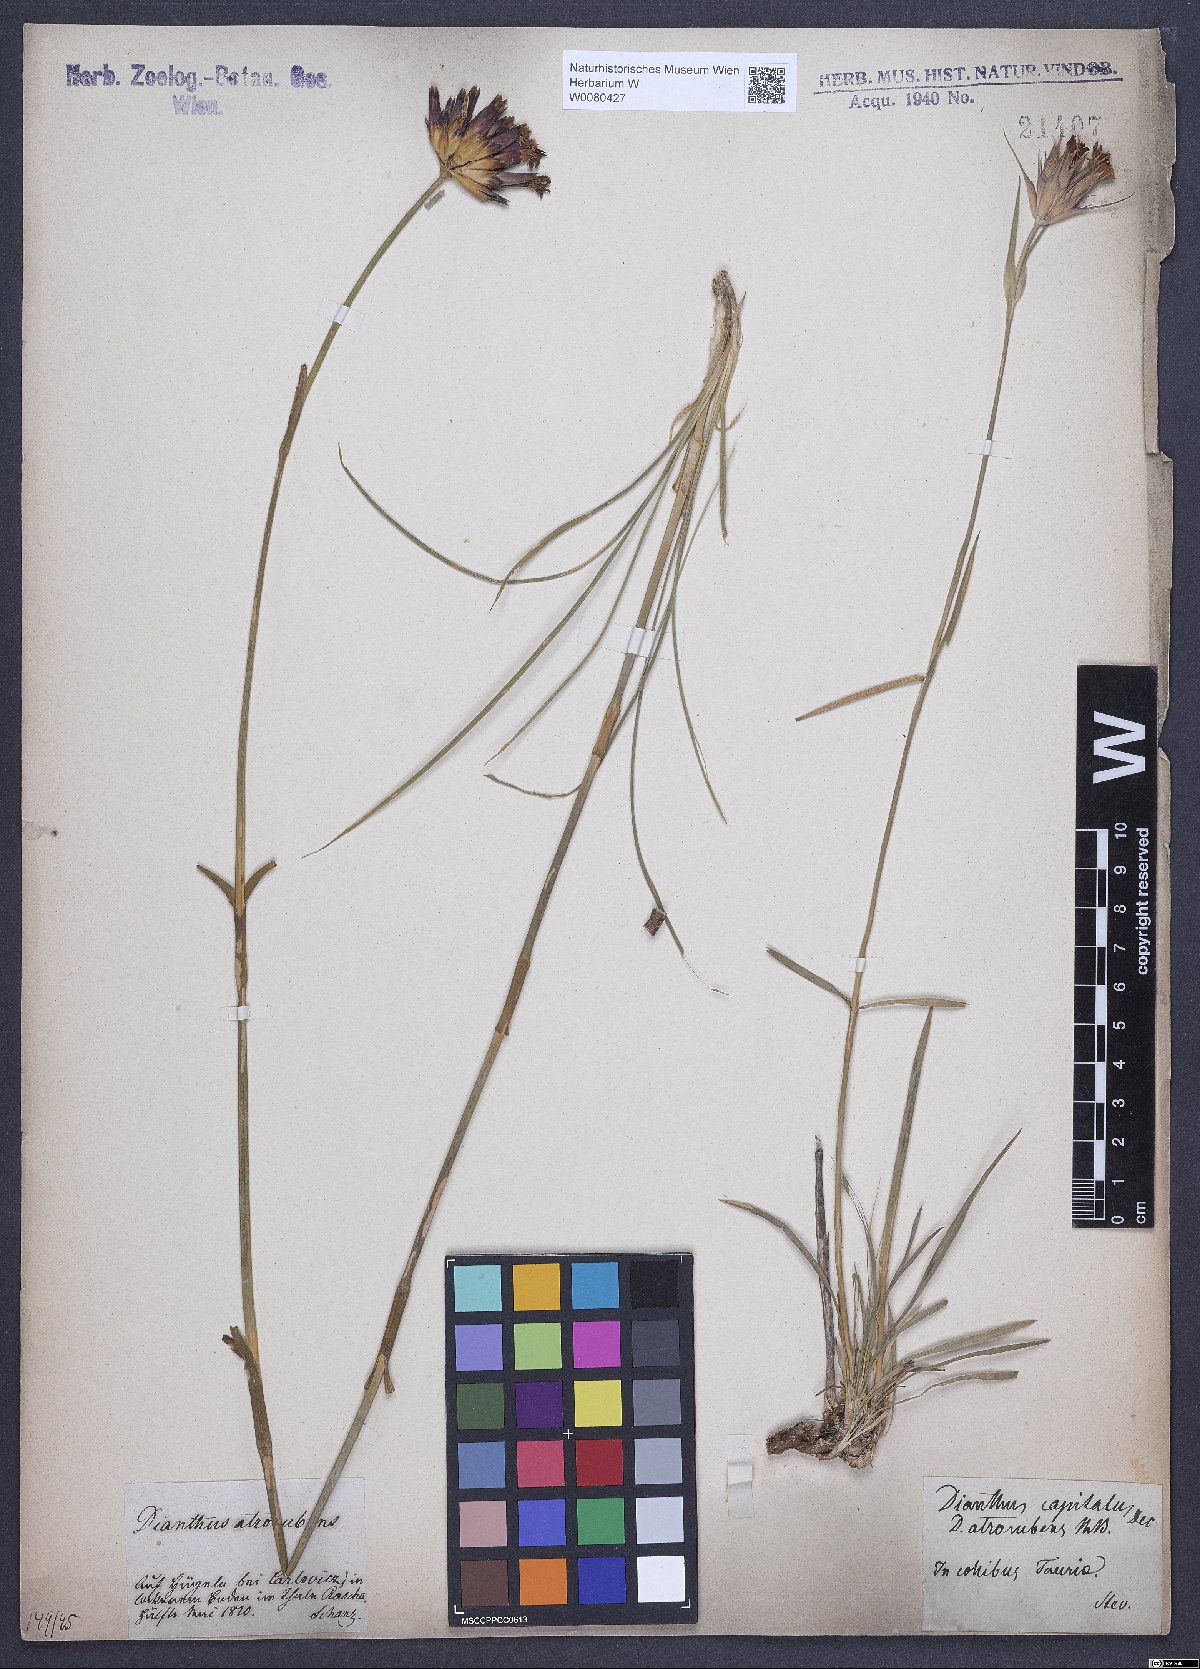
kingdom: Plantae
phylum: Tracheophyta
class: Magnoliopsida
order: Caryophyllales
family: Caryophyllaceae
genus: Dianthus
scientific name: Dianthus carthusianorum
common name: Carthusian pink
